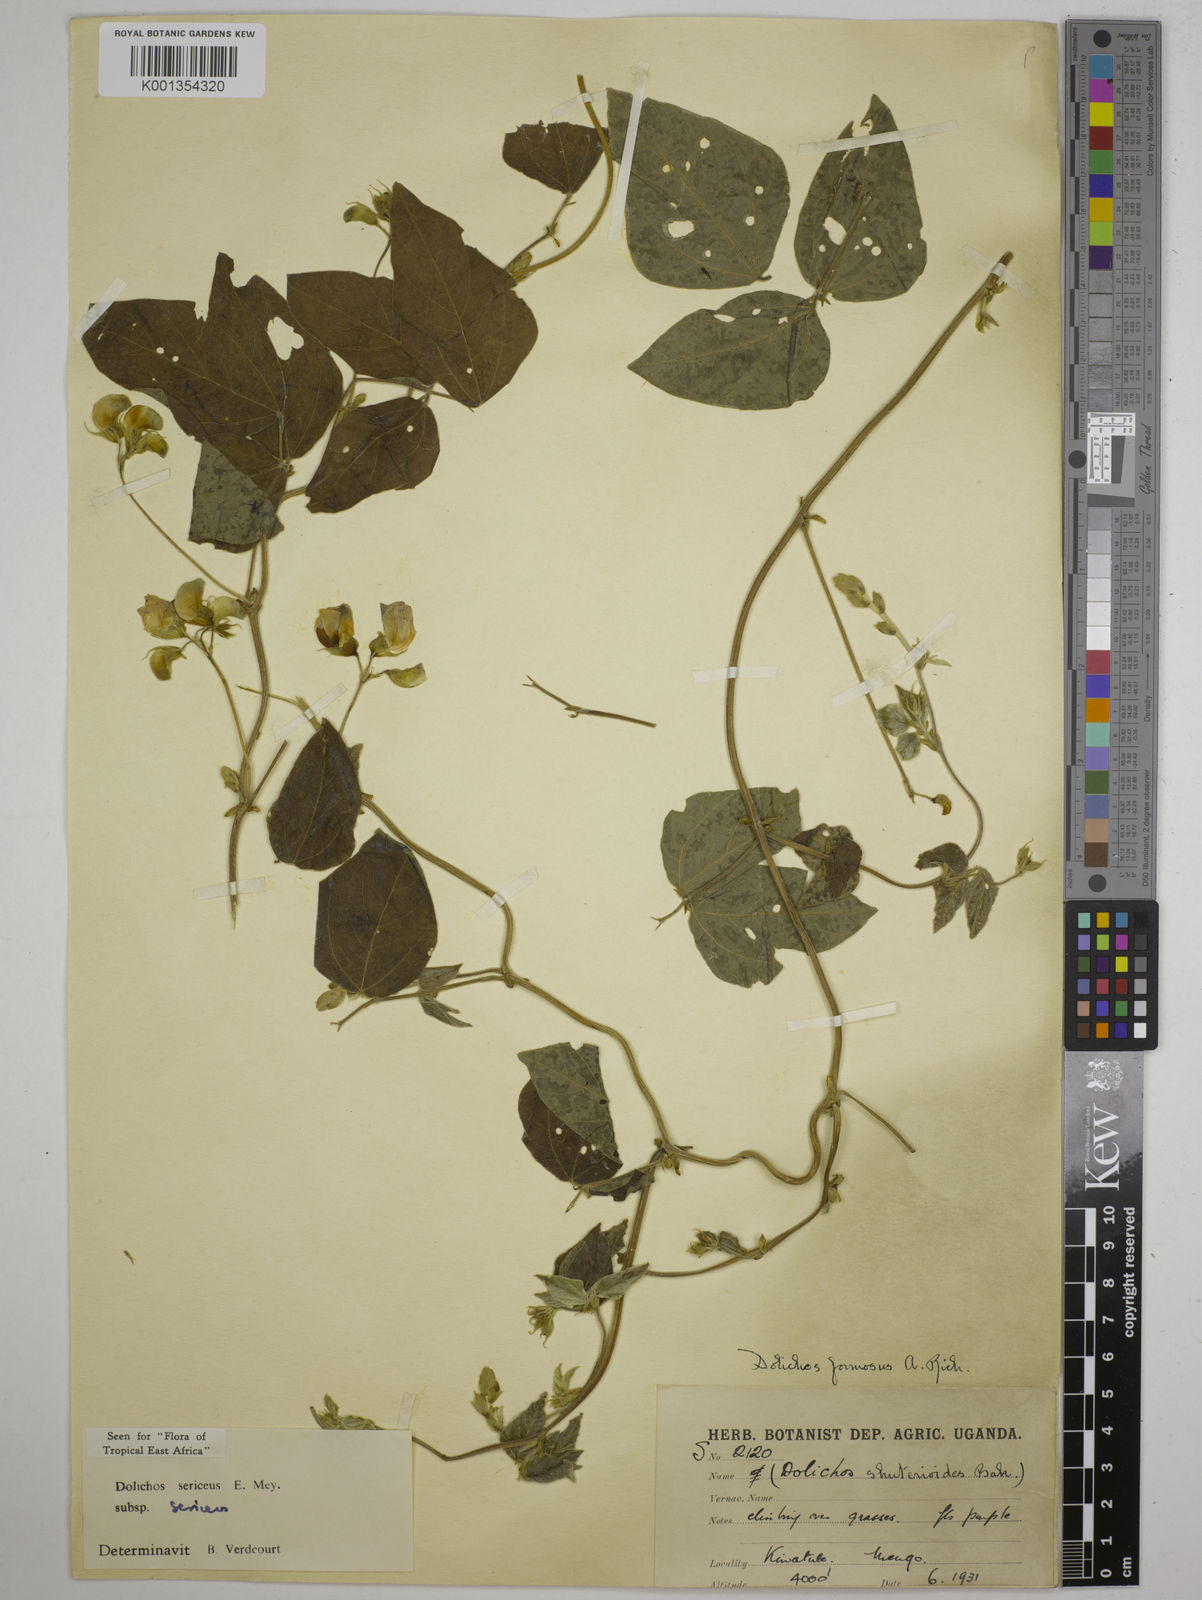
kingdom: Plantae
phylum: Tracheophyta
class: Magnoliopsida
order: Fabales
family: Fabaceae
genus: Dolichos
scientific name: Dolichos sericeus
